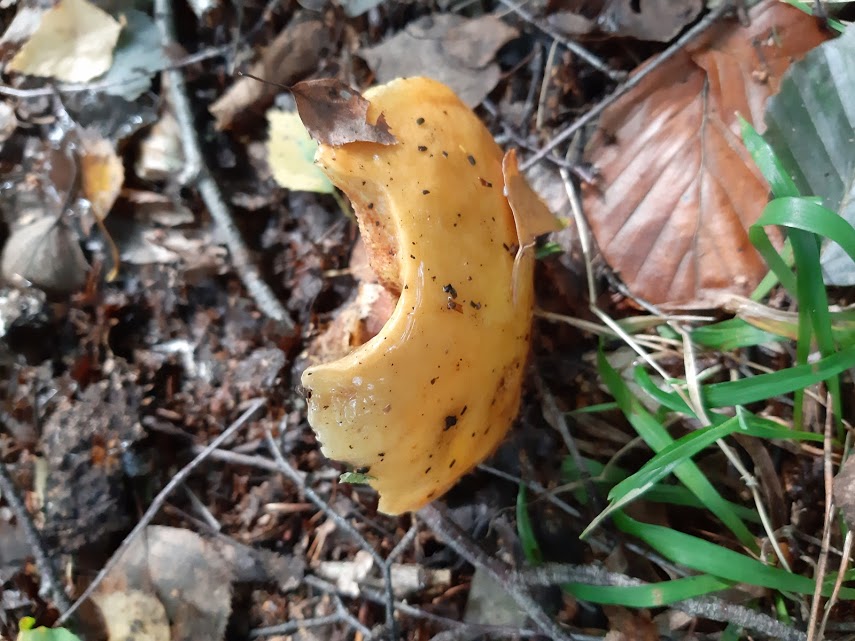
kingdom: Fungi
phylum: Basidiomycota
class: Agaricomycetes
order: Boletales
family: Suillaceae
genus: Suillus
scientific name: Suillus grevillei
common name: lærke-slimrørhat
